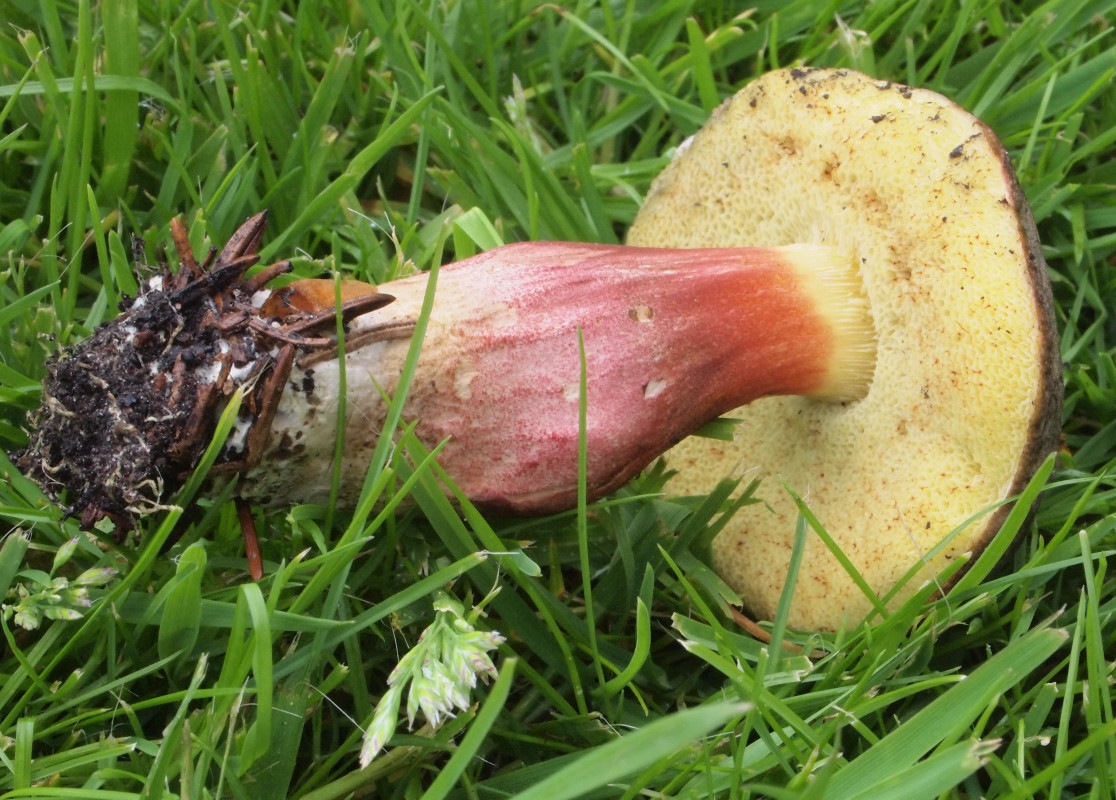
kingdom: Fungi
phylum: Basidiomycota
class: Agaricomycetes
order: Boletales
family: Boletaceae
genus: Xerocomellus
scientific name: Xerocomellus chrysenteron
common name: rødsprukken rørhat
